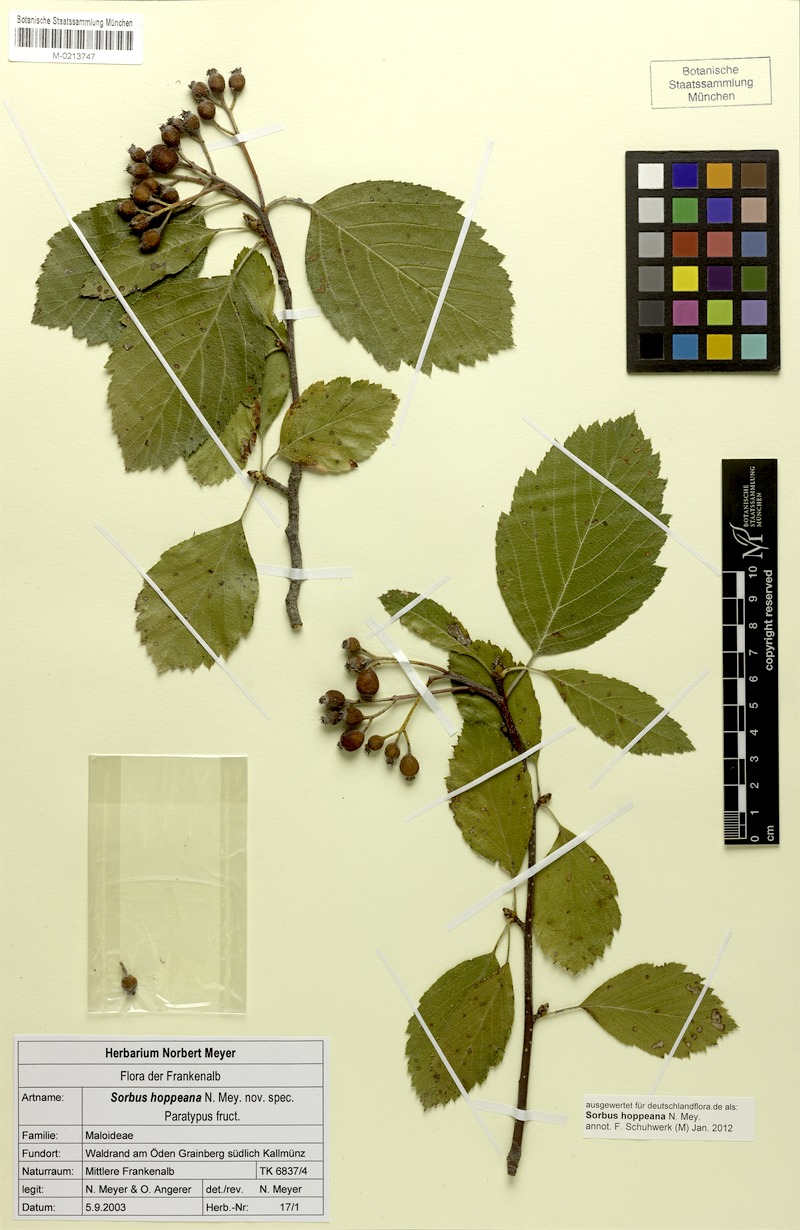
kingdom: Plantae
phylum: Tracheophyta
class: Magnoliopsida
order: Rosales
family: Rosaceae
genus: Karpatiosorbus
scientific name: Karpatiosorbus hoppeana
